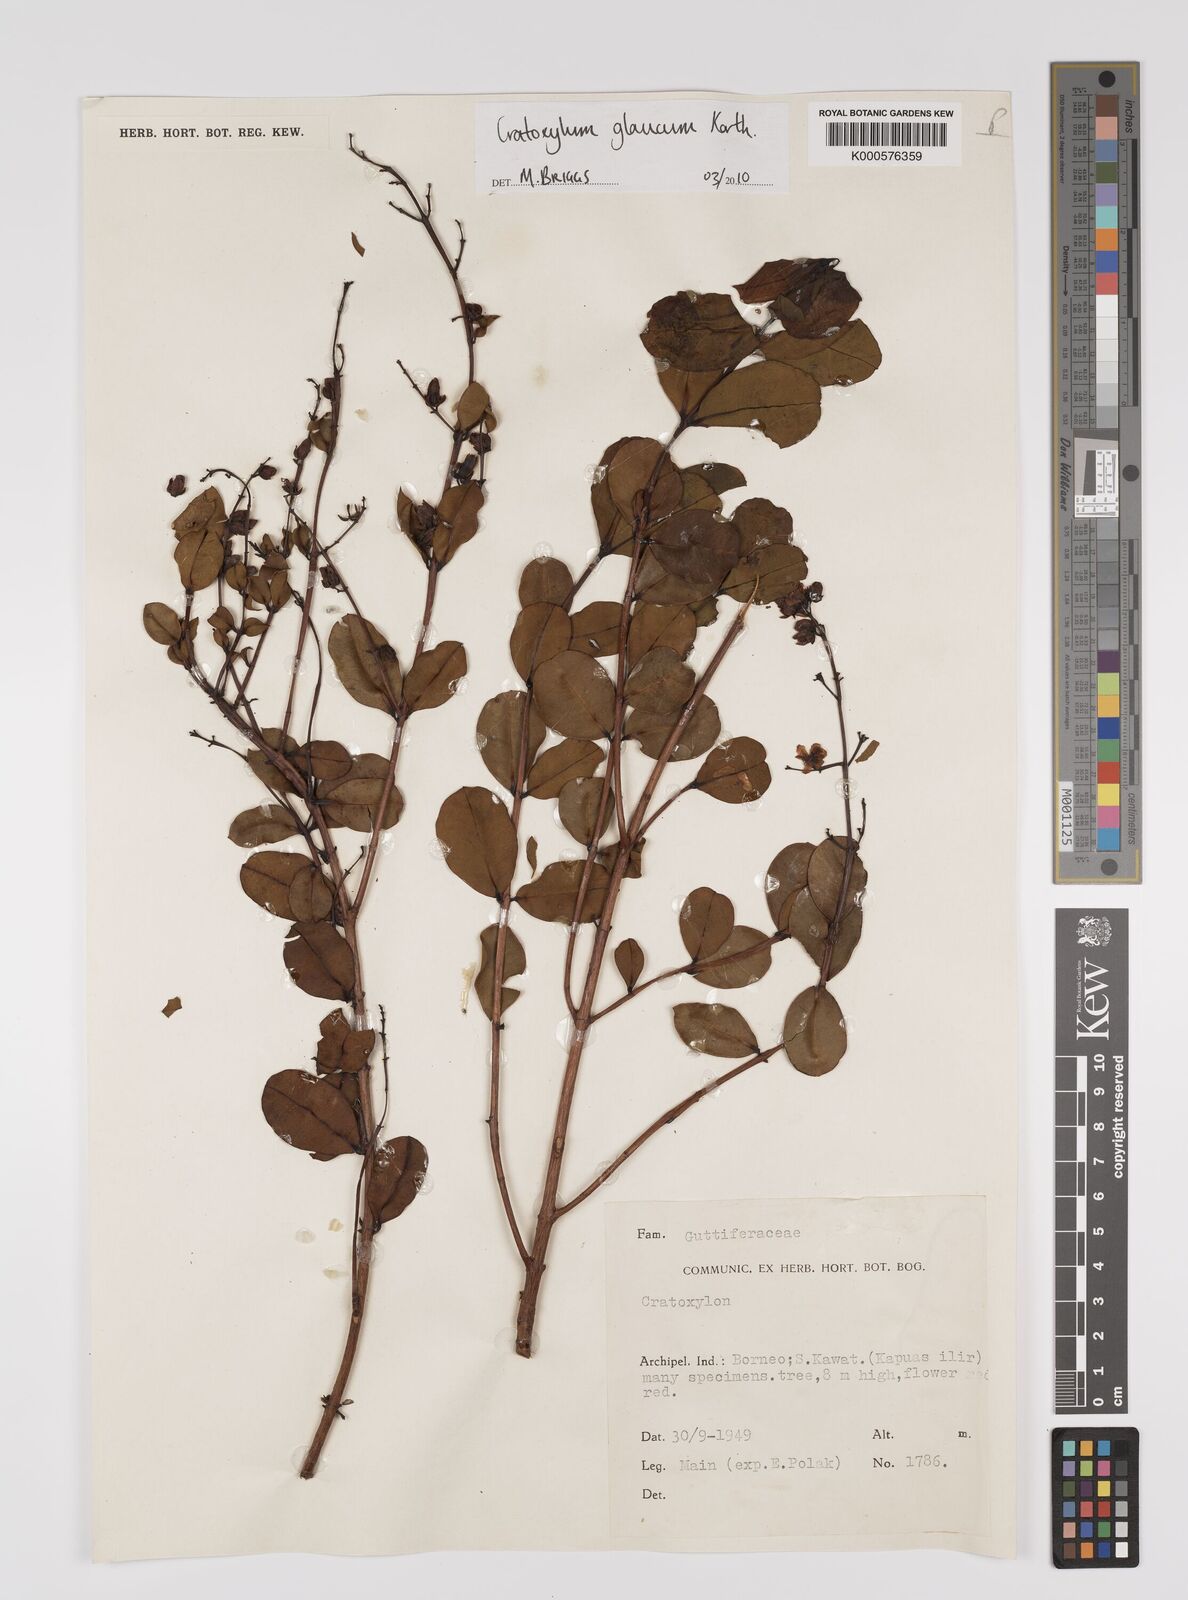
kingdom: Plantae
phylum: Tracheophyta
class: Magnoliopsida
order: Malpighiales
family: Hypericaceae
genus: Cratoxylum
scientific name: Cratoxylum glaucum
